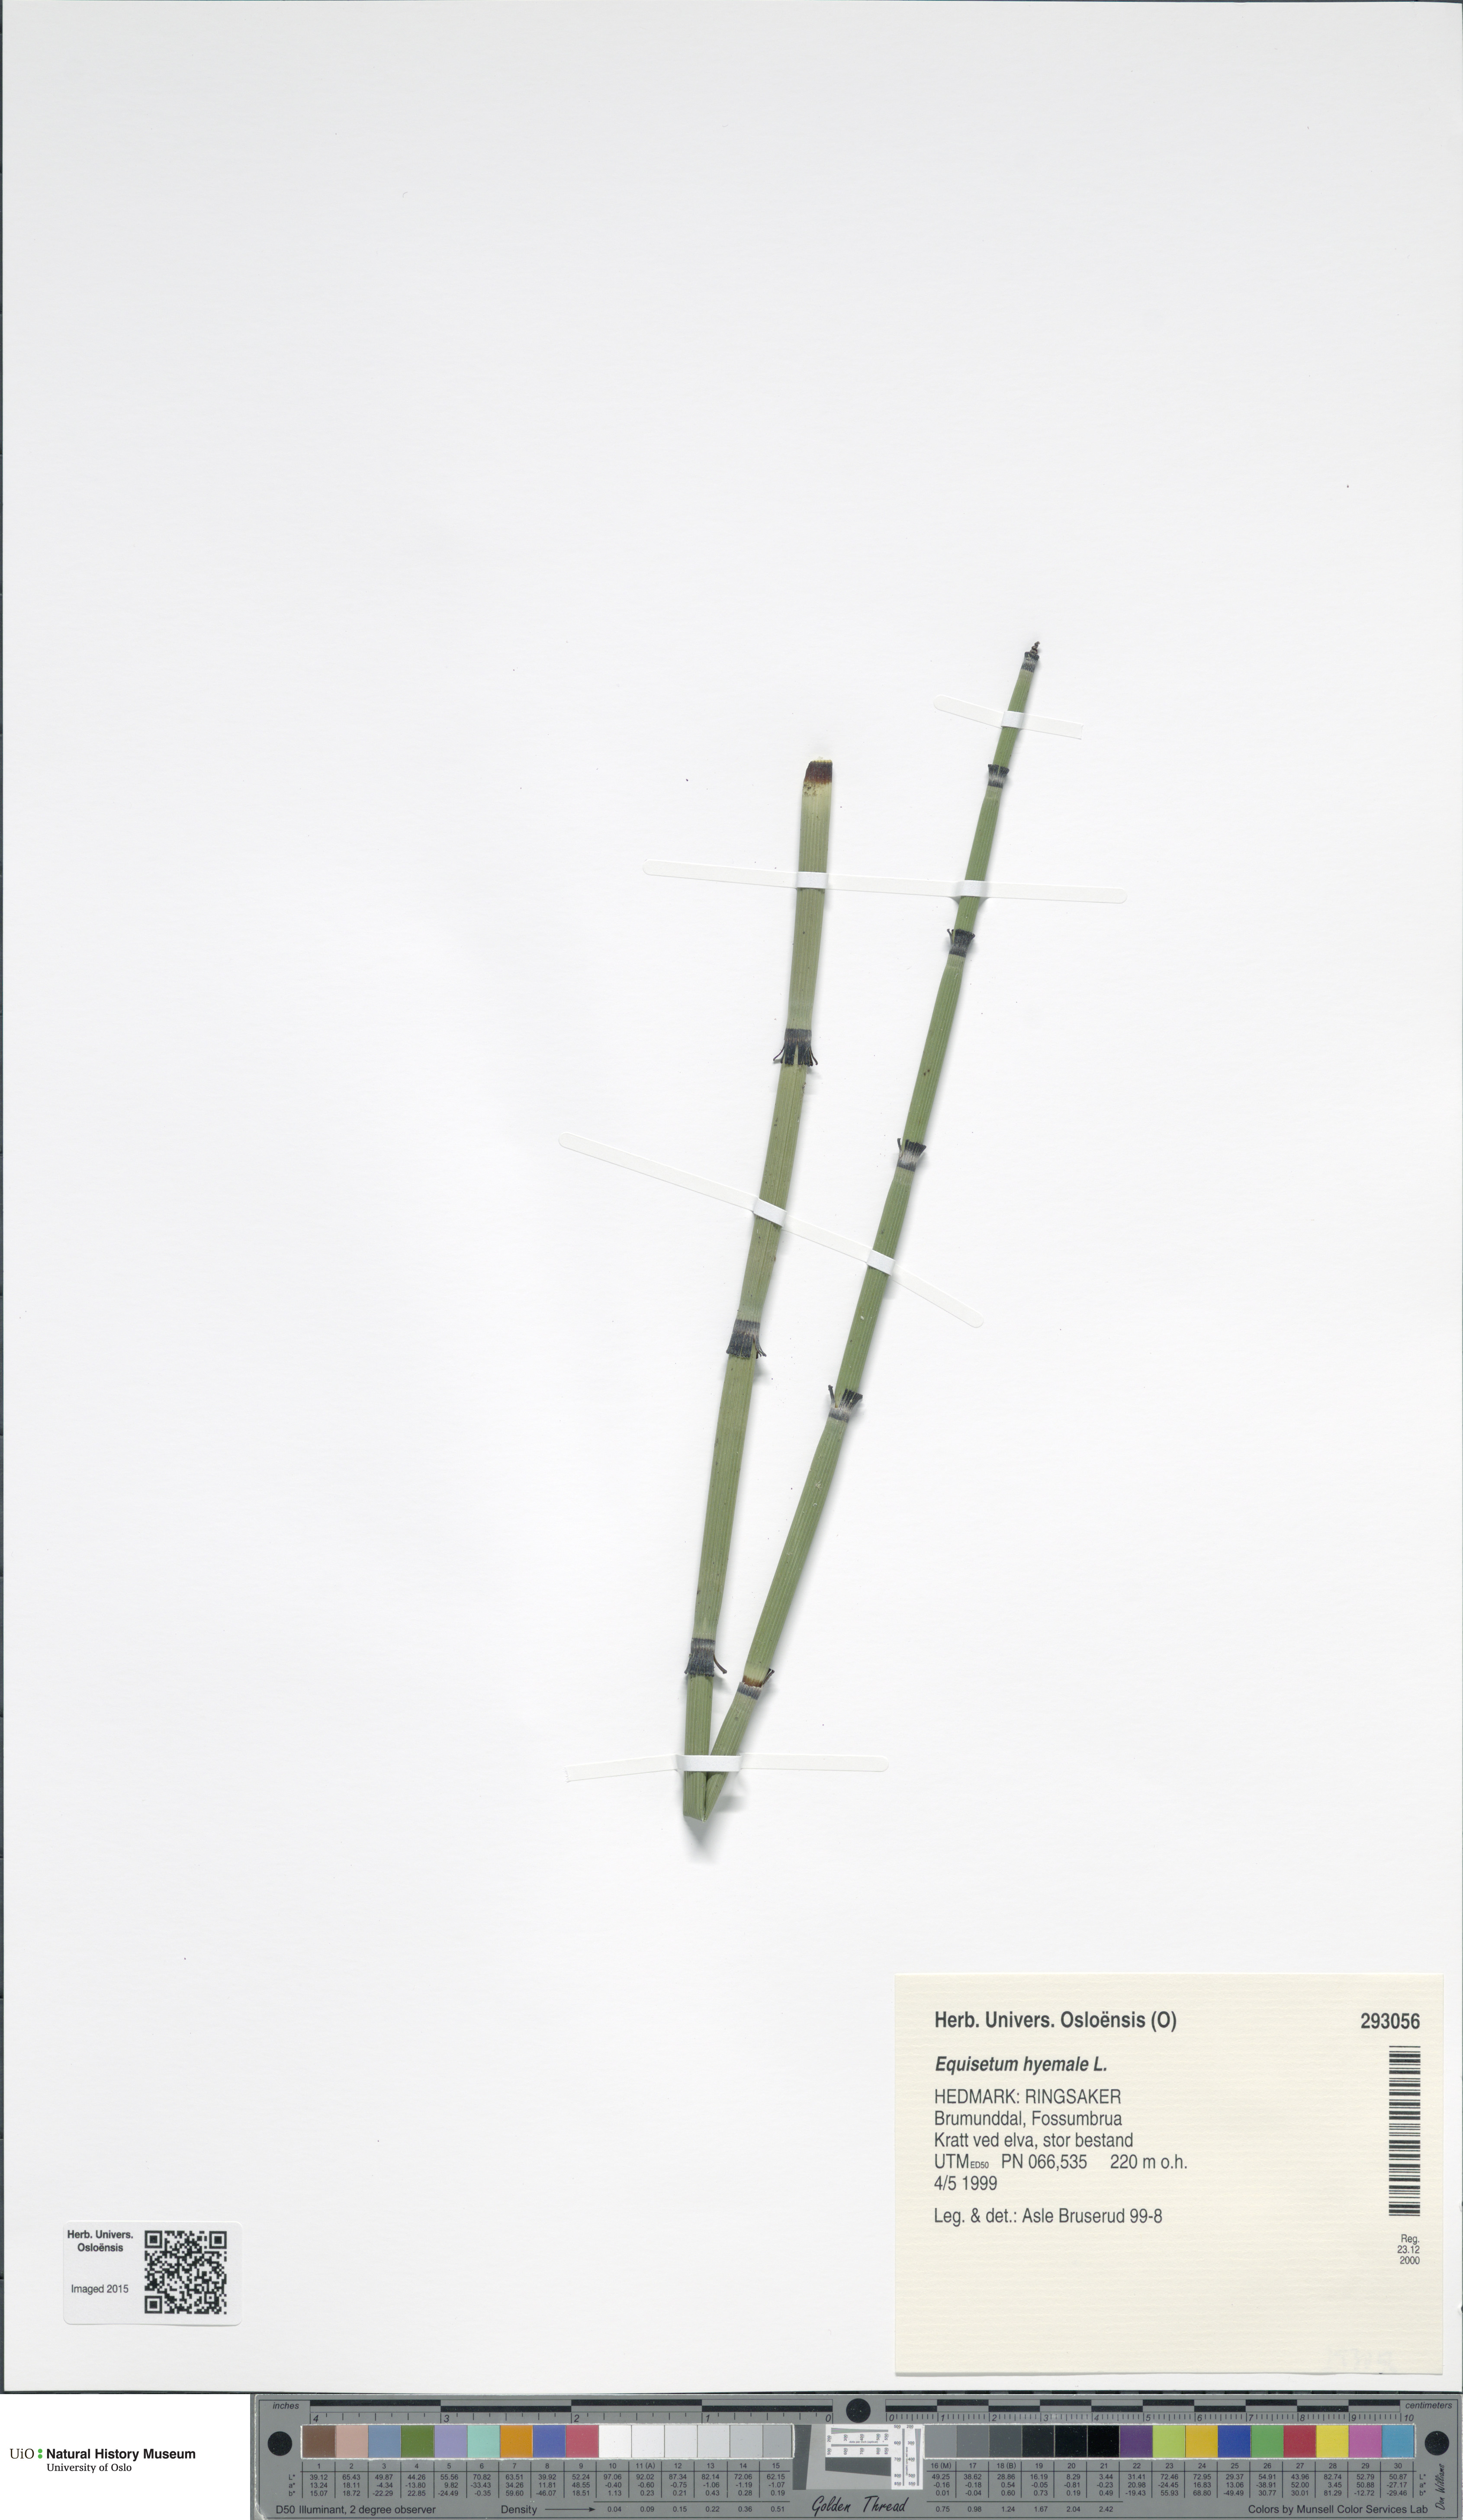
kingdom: Plantae
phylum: Tracheophyta
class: Polypodiopsida
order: Equisetales
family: Equisetaceae
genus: Equisetum
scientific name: Equisetum hyemale
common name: Rough horsetail
